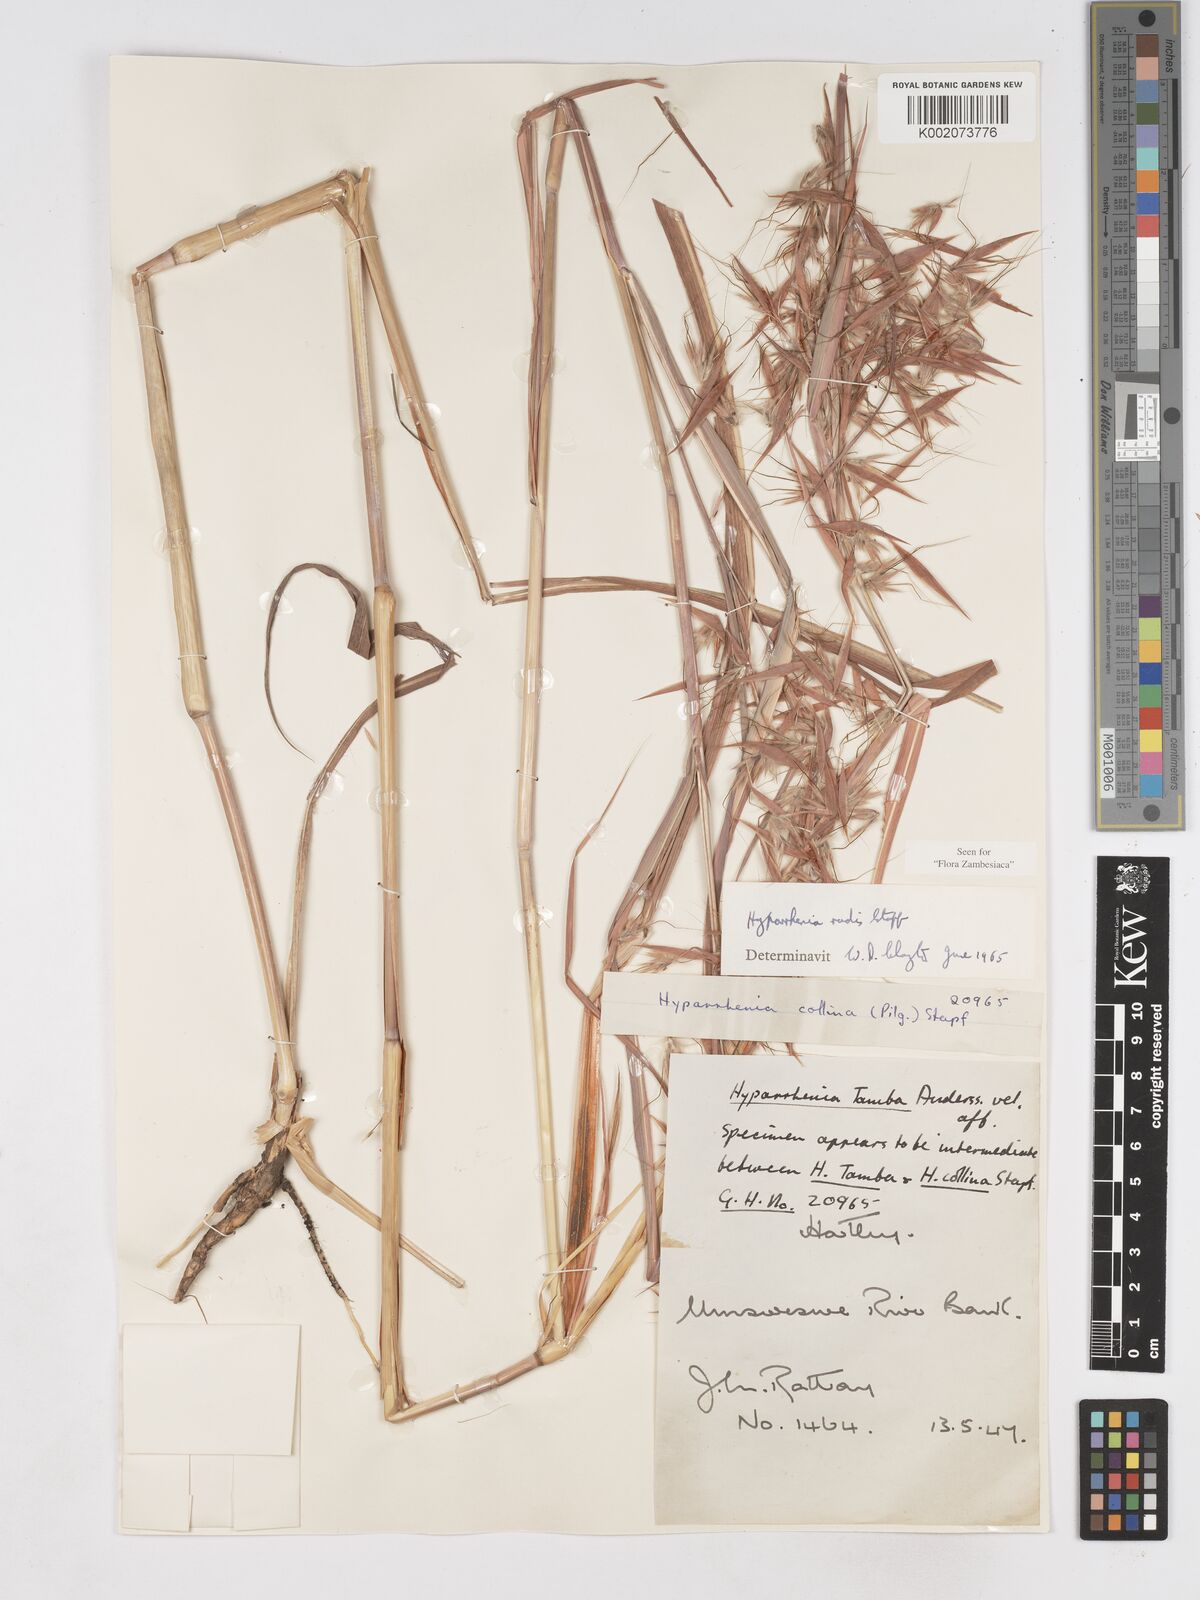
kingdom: Plantae
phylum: Tracheophyta
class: Liliopsida
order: Poales
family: Poaceae
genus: Hyparrhenia
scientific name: Hyparrhenia rudis
